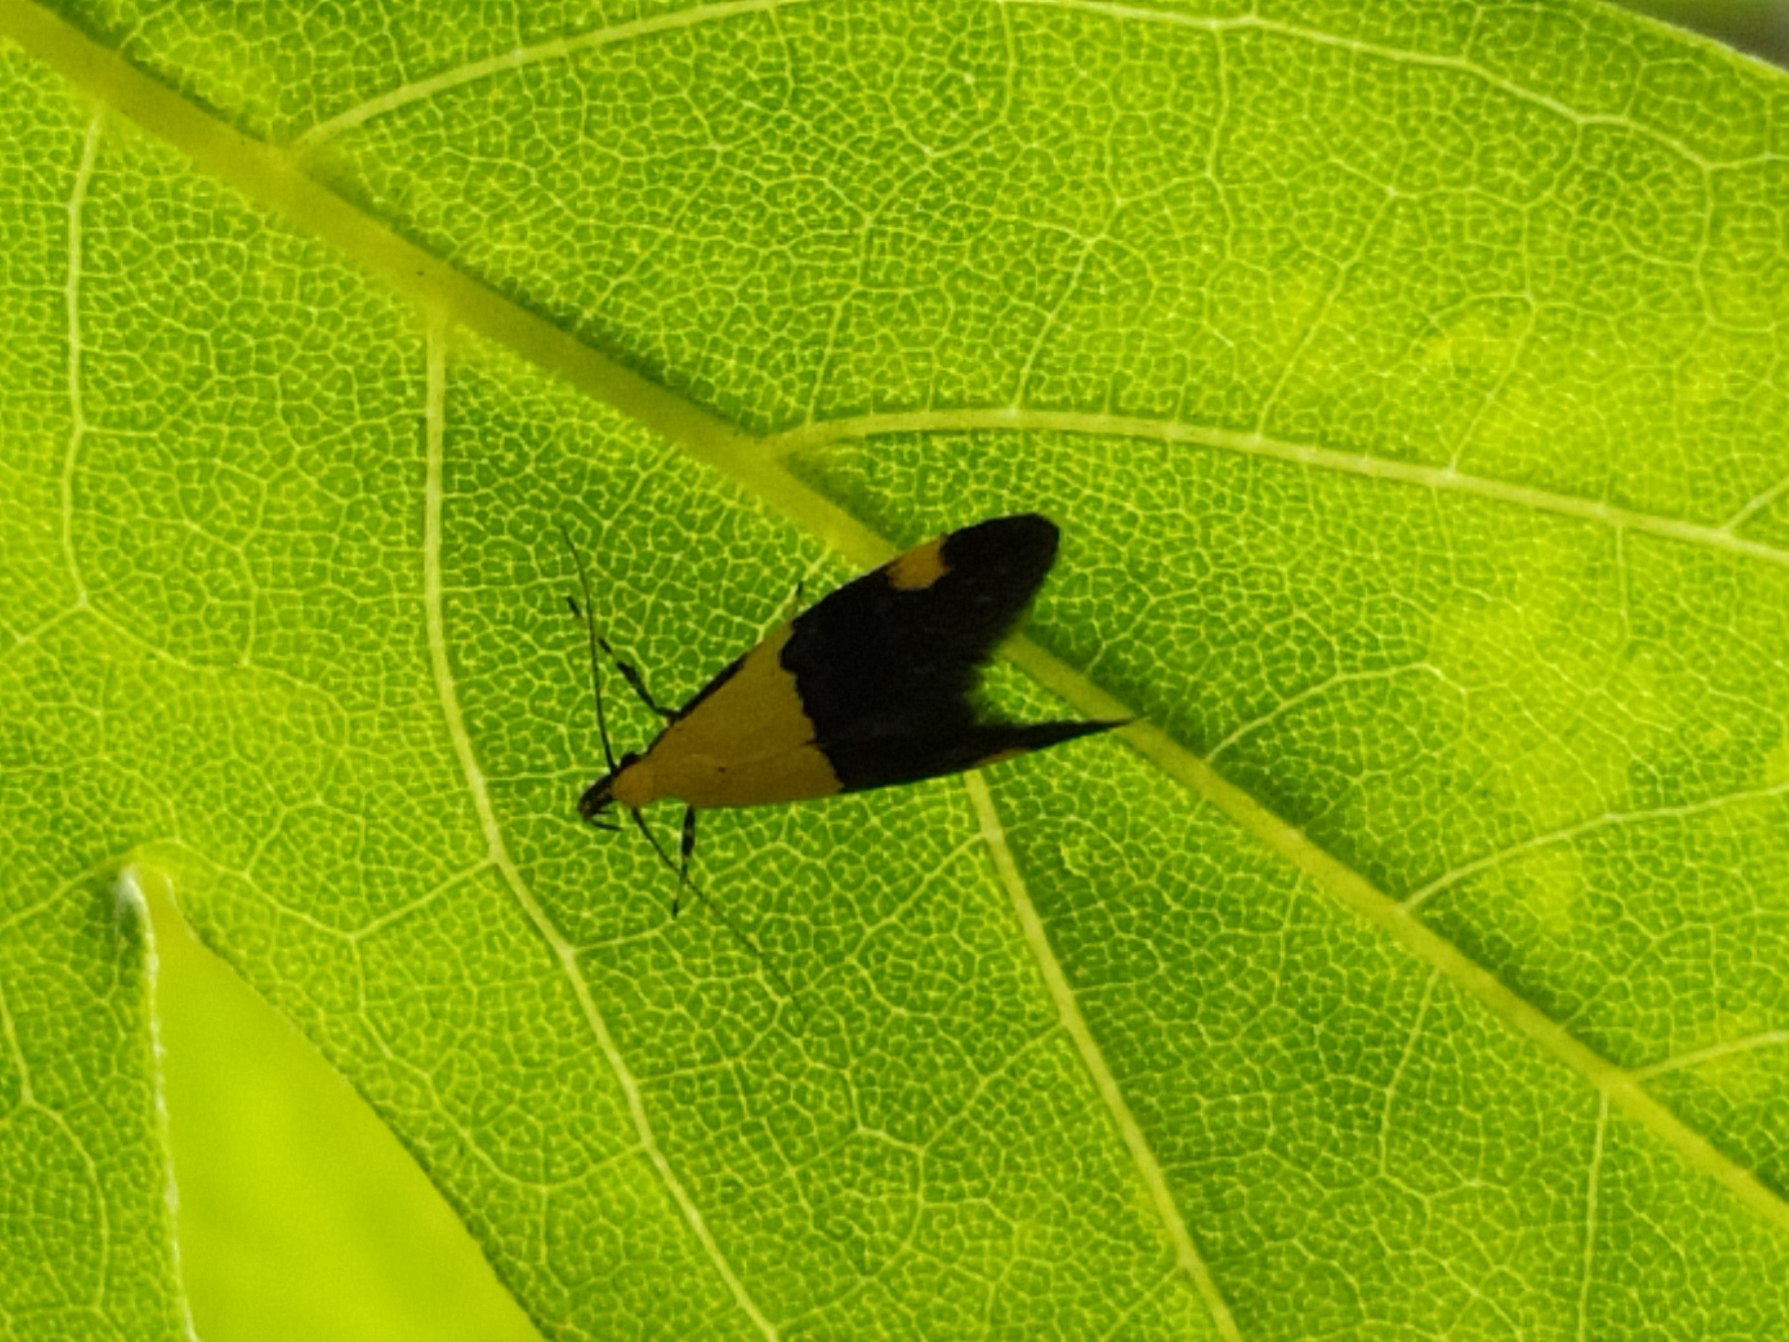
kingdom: Animalia
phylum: Arthropoda
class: Insecta
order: Lepidoptera
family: Oecophoridae
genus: Oecophora
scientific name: Oecophora bractella
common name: Tofarvet prydvinge
